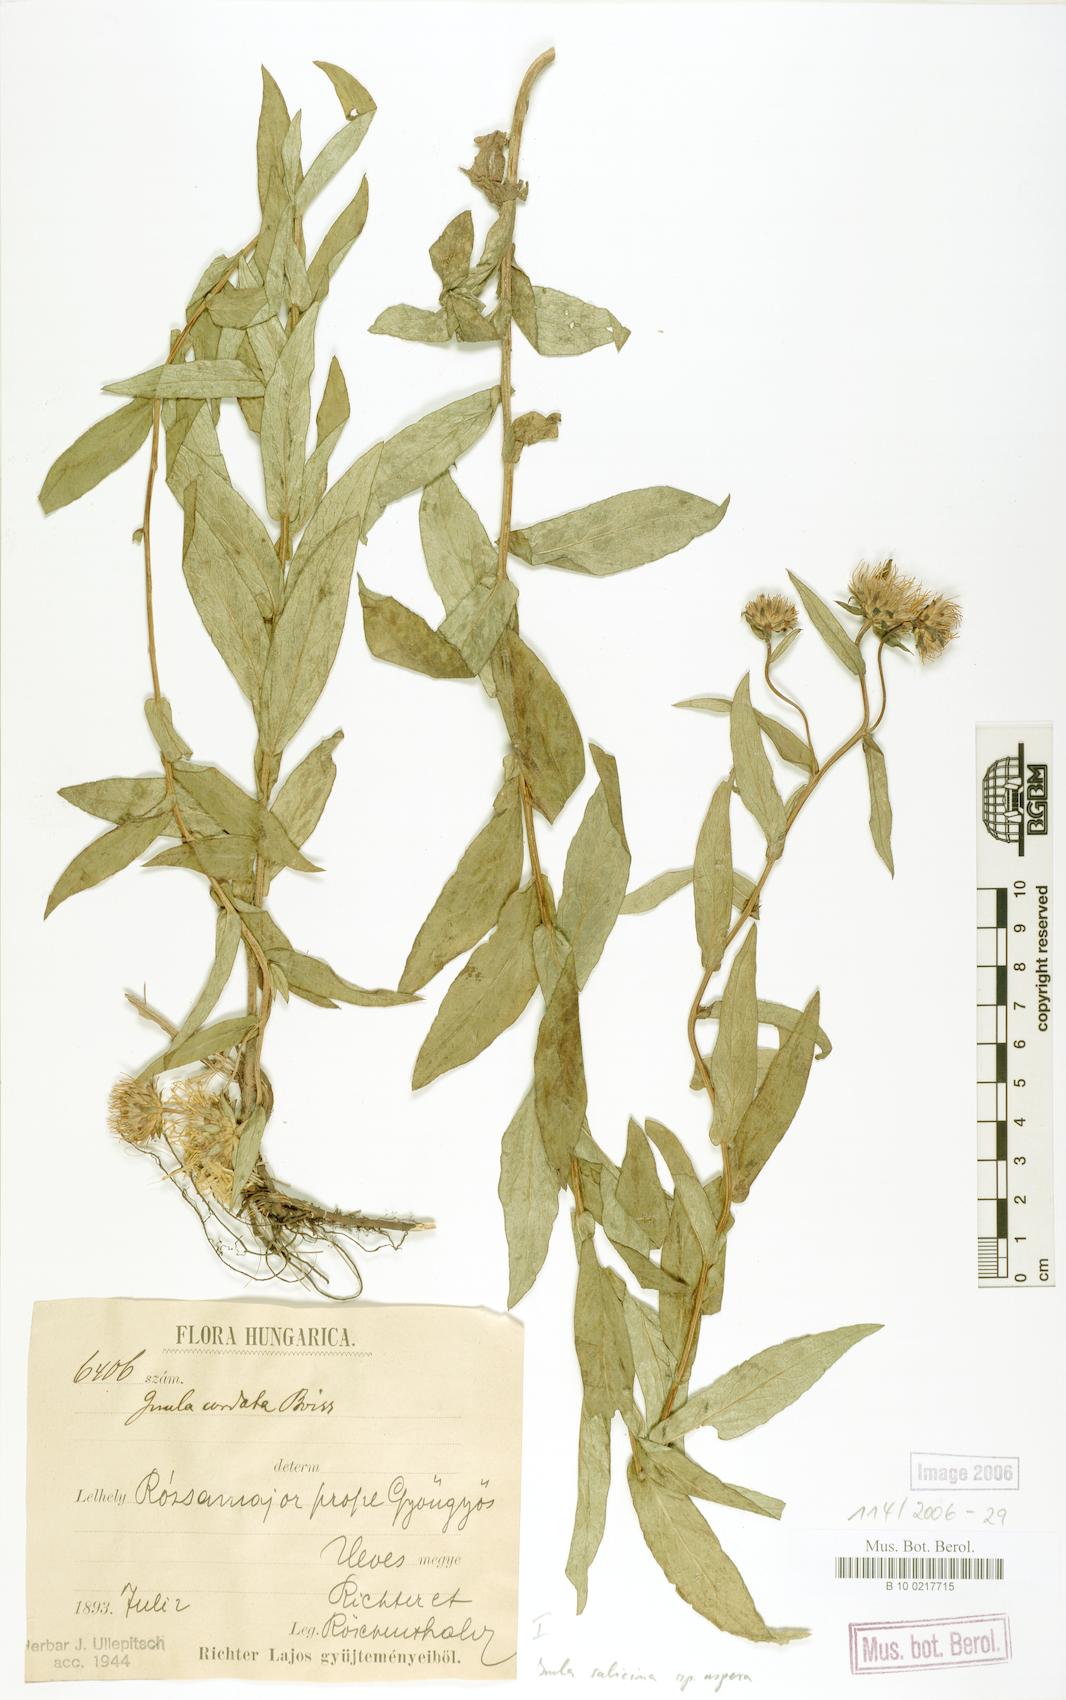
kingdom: Plantae
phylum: Tracheophyta
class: Magnoliopsida
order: Asterales
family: Asteraceae
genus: Pentanema
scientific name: Pentanema salicinum
